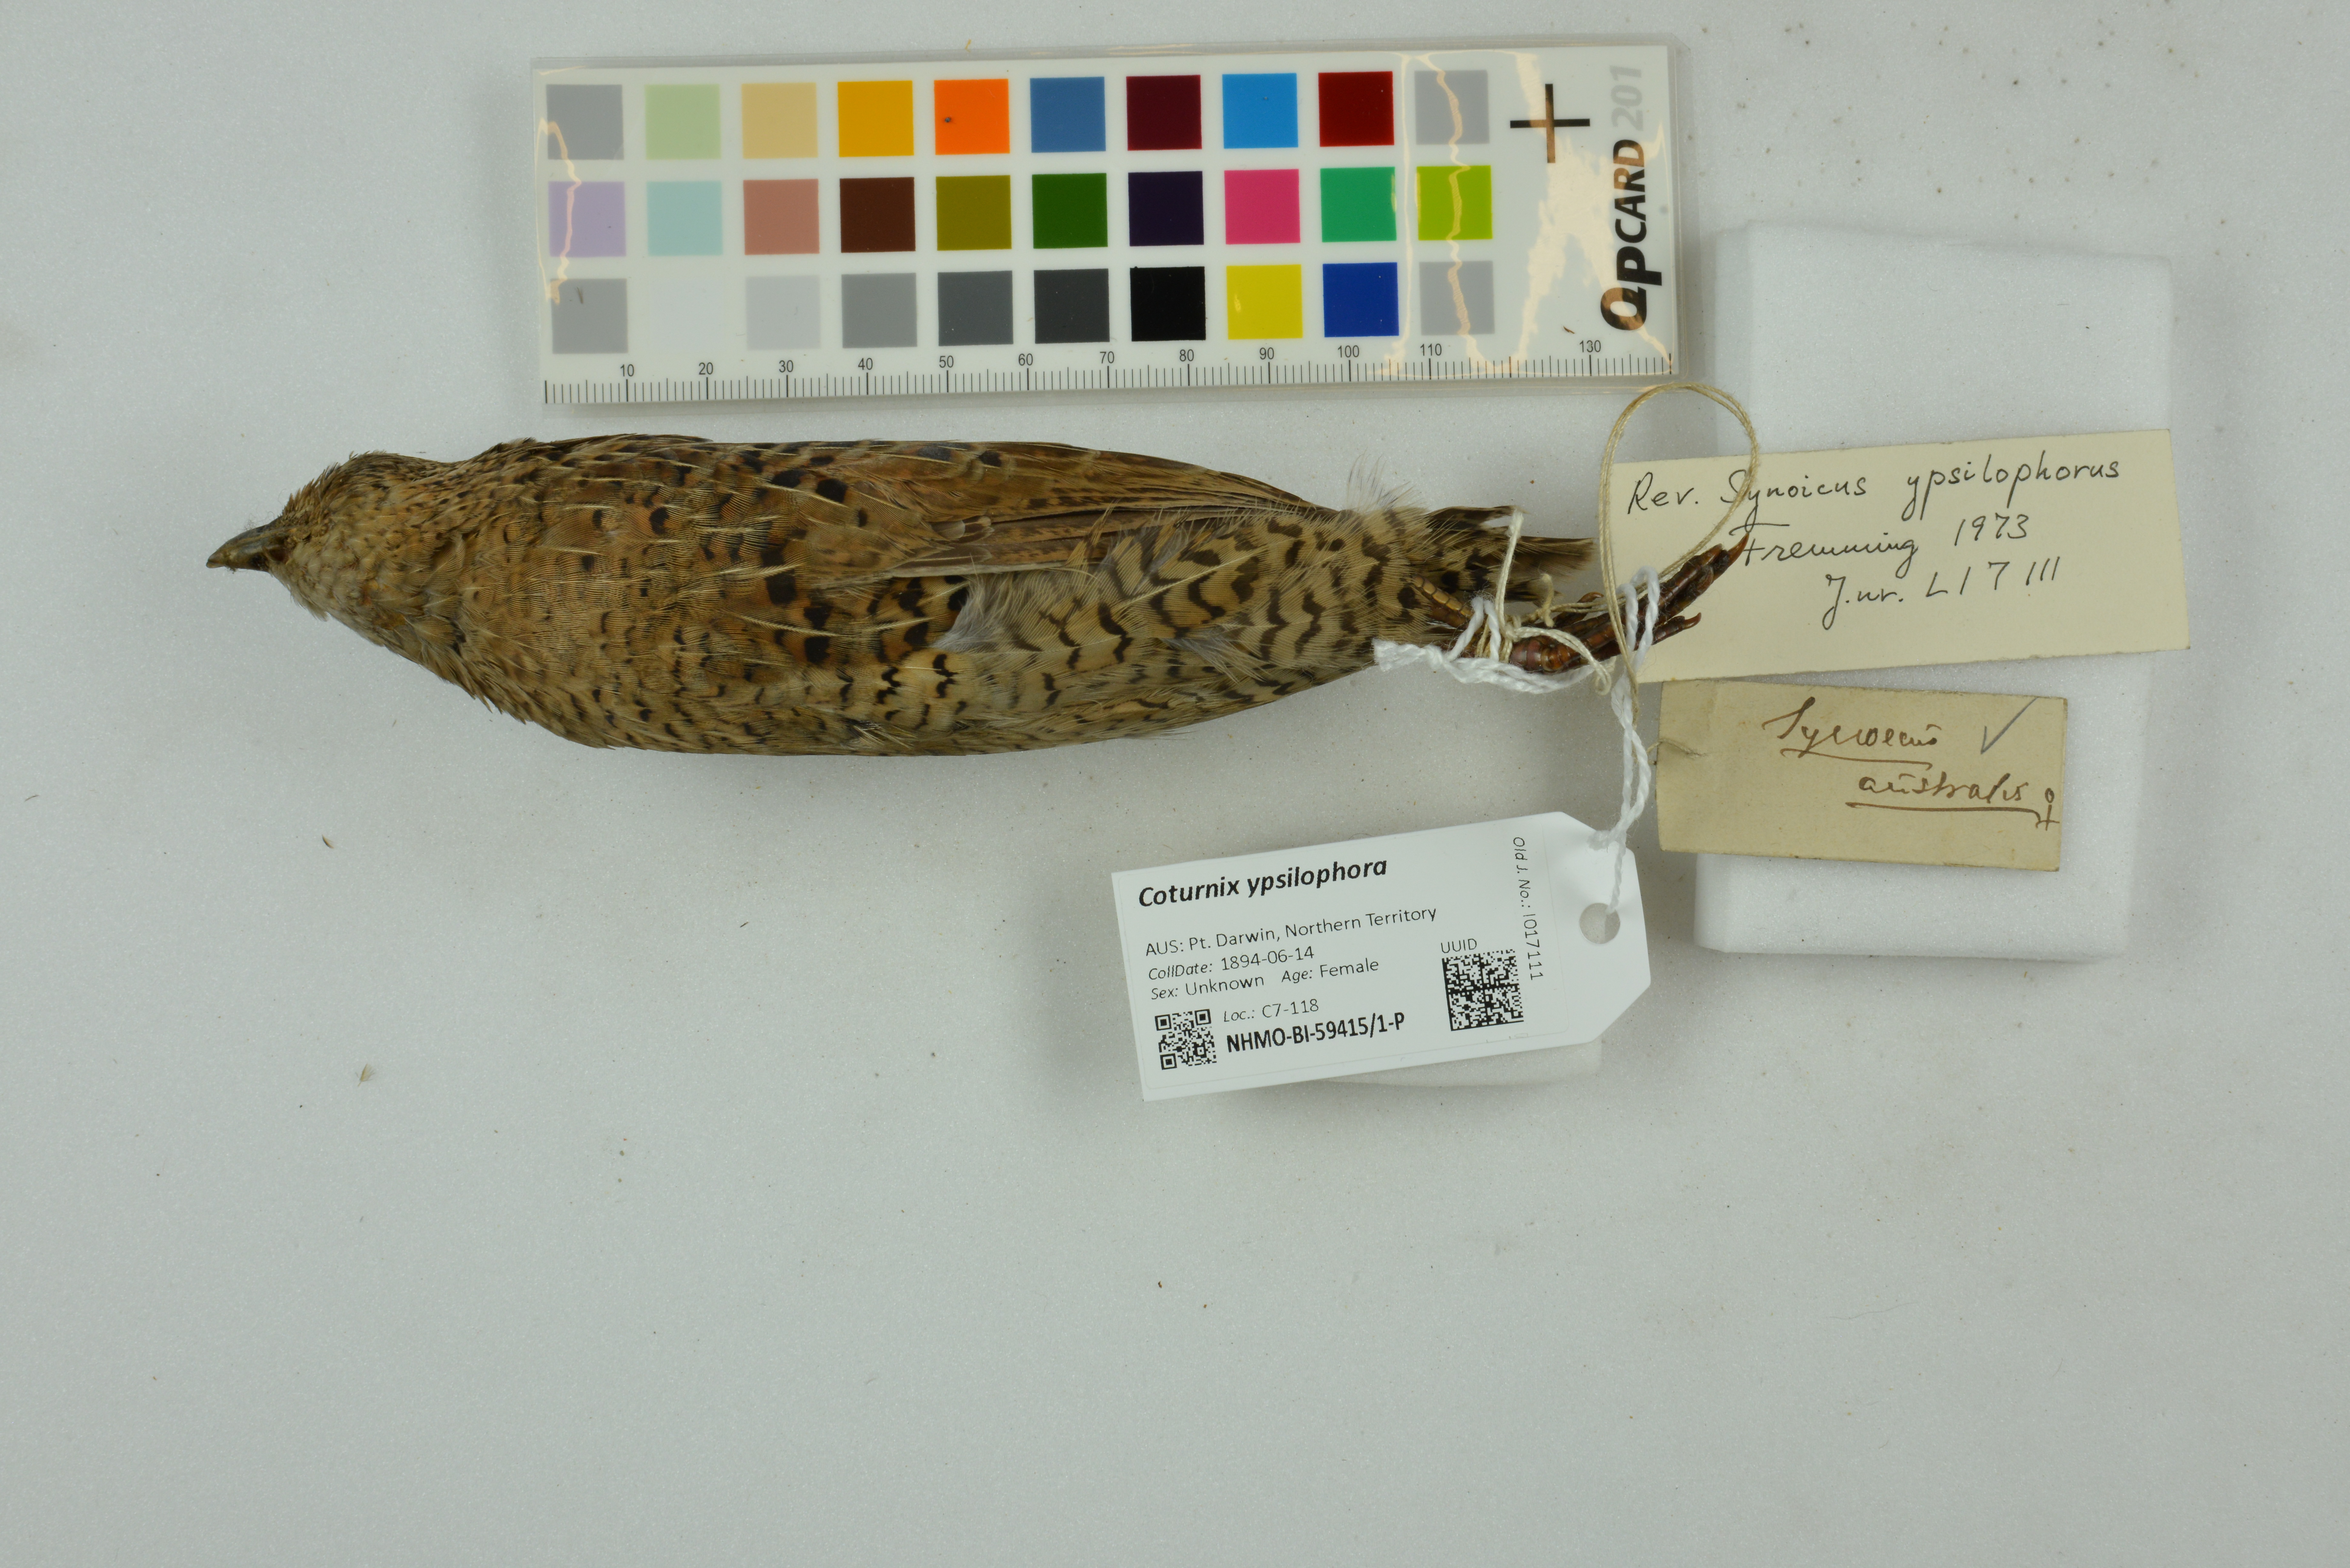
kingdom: Animalia
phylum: Chordata
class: Aves
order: Galliformes
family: Phasianidae
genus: Synoicus
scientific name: Synoicus ypsilophorus
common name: Brown quail
